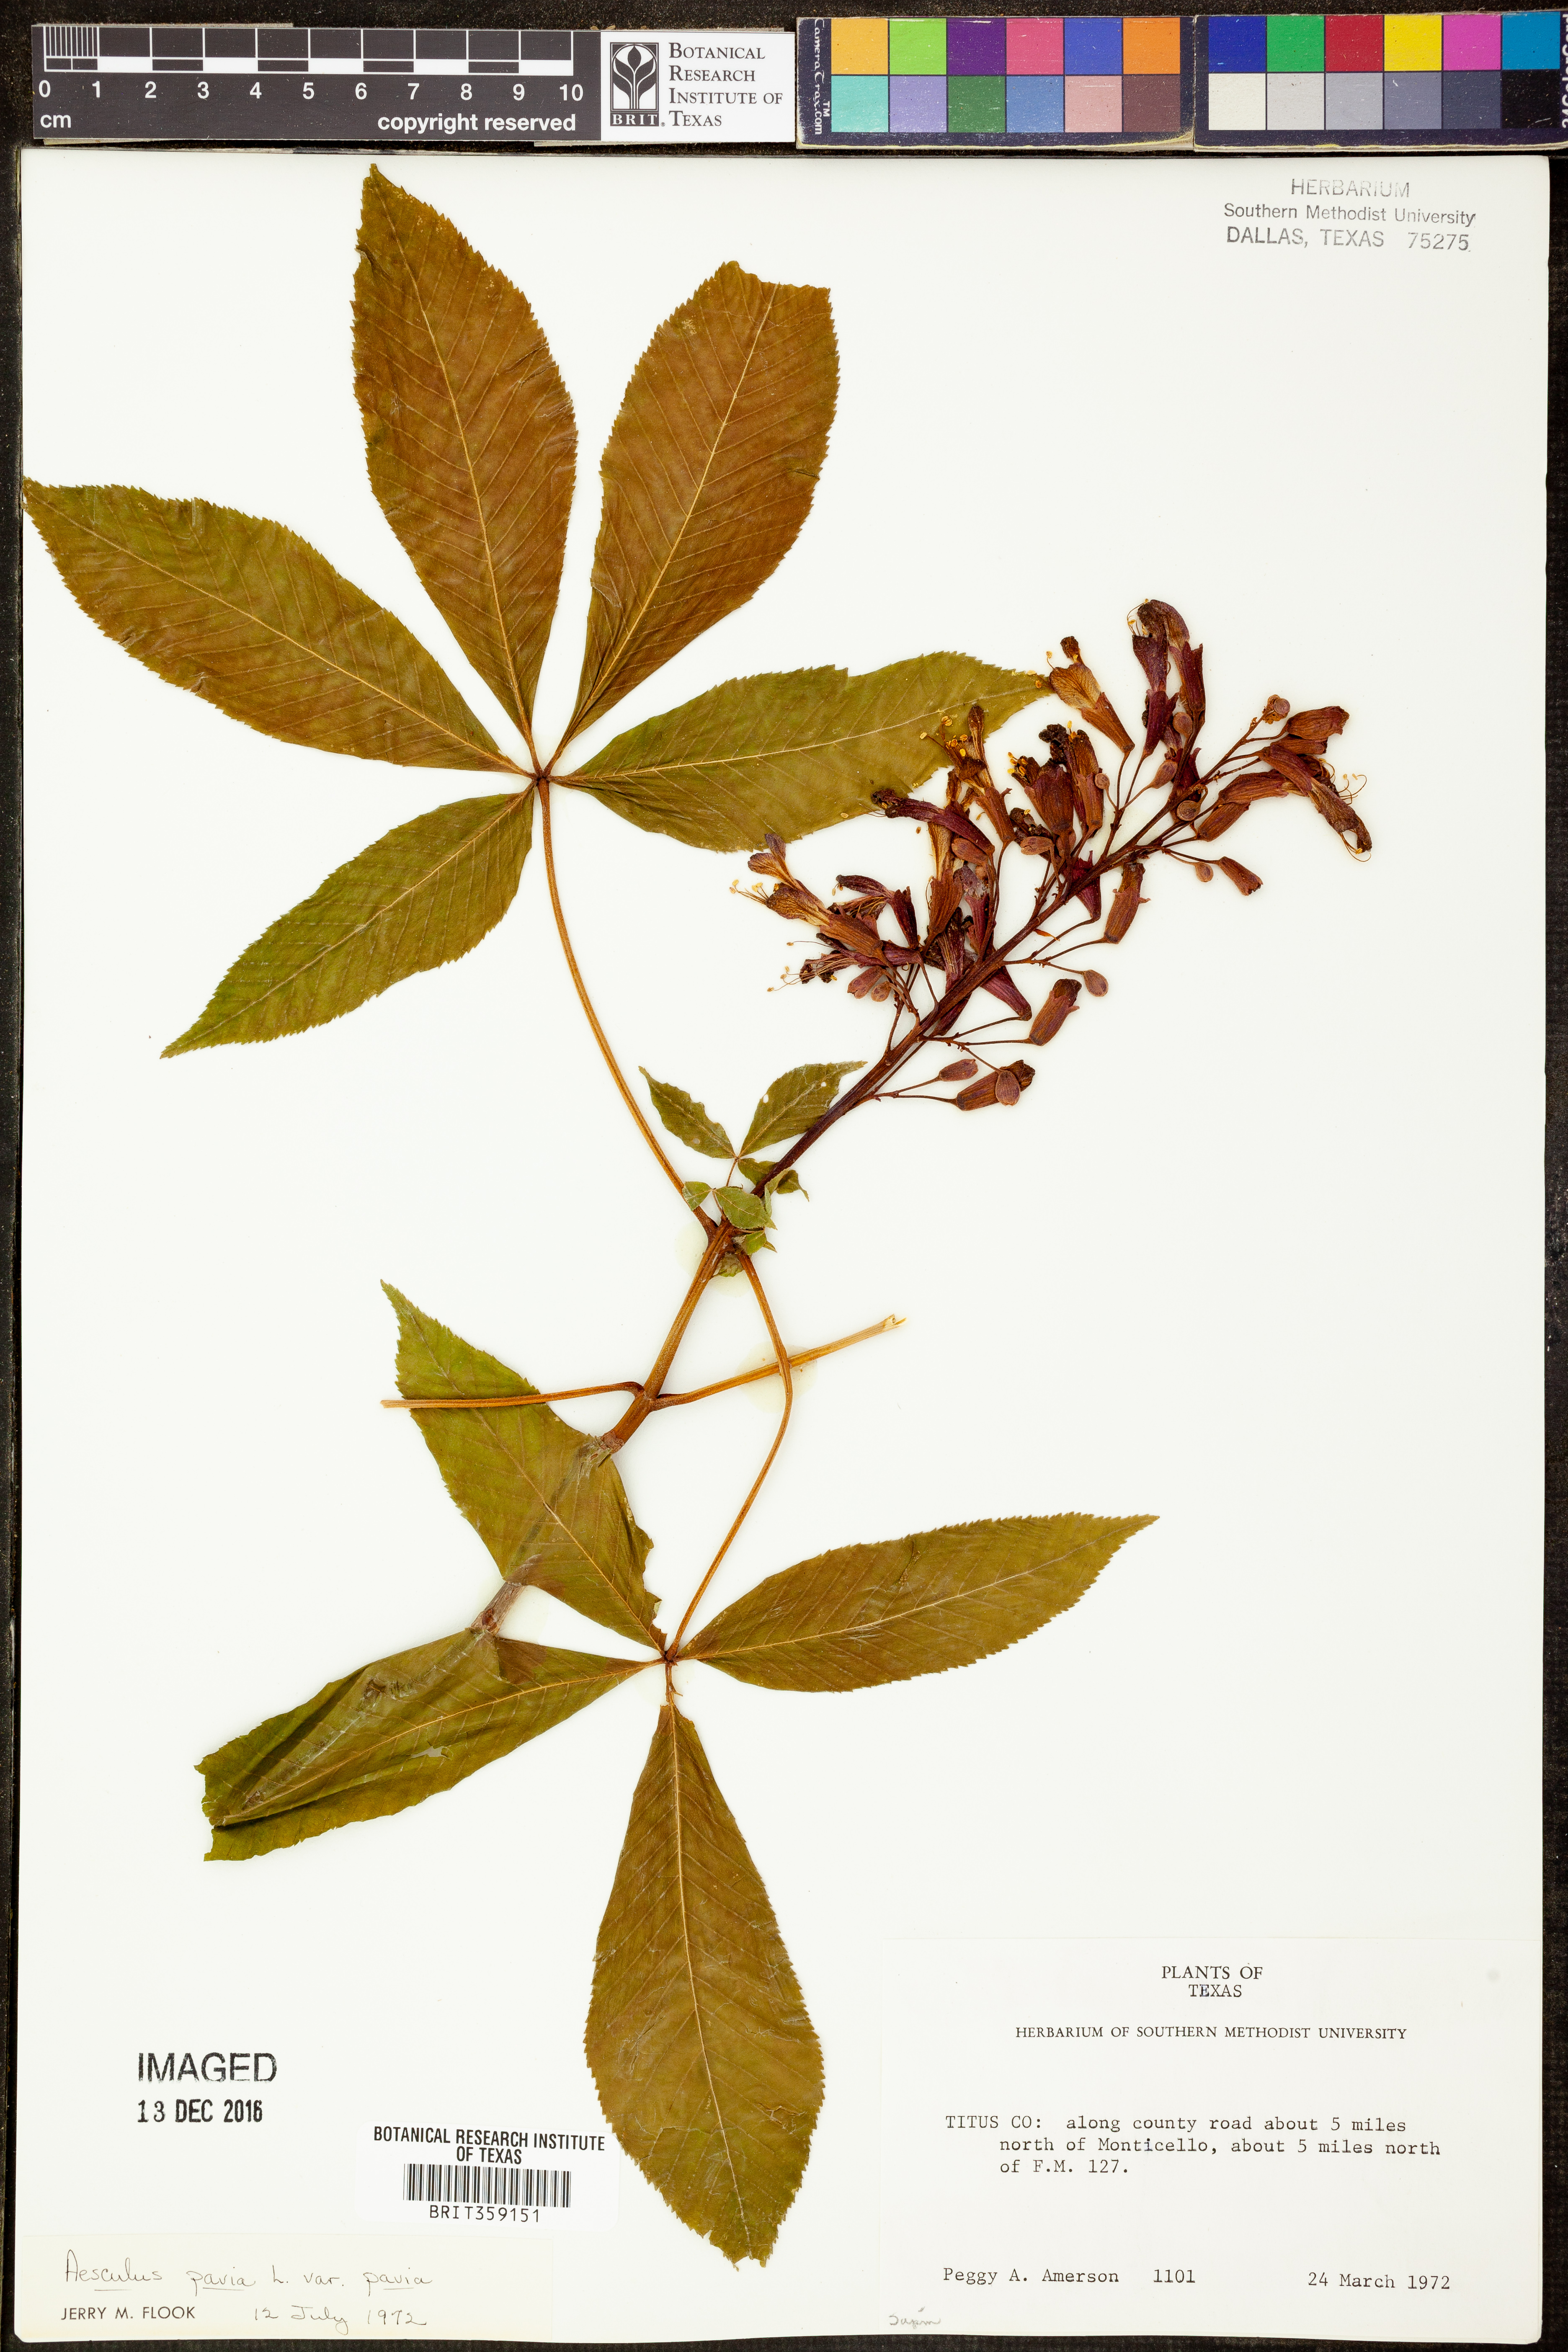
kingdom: Plantae
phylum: Tracheophyta
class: Magnoliopsida
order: Sapindales
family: Sapindaceae
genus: Aesculus
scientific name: Aesculus pavia
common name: Red buckeye
